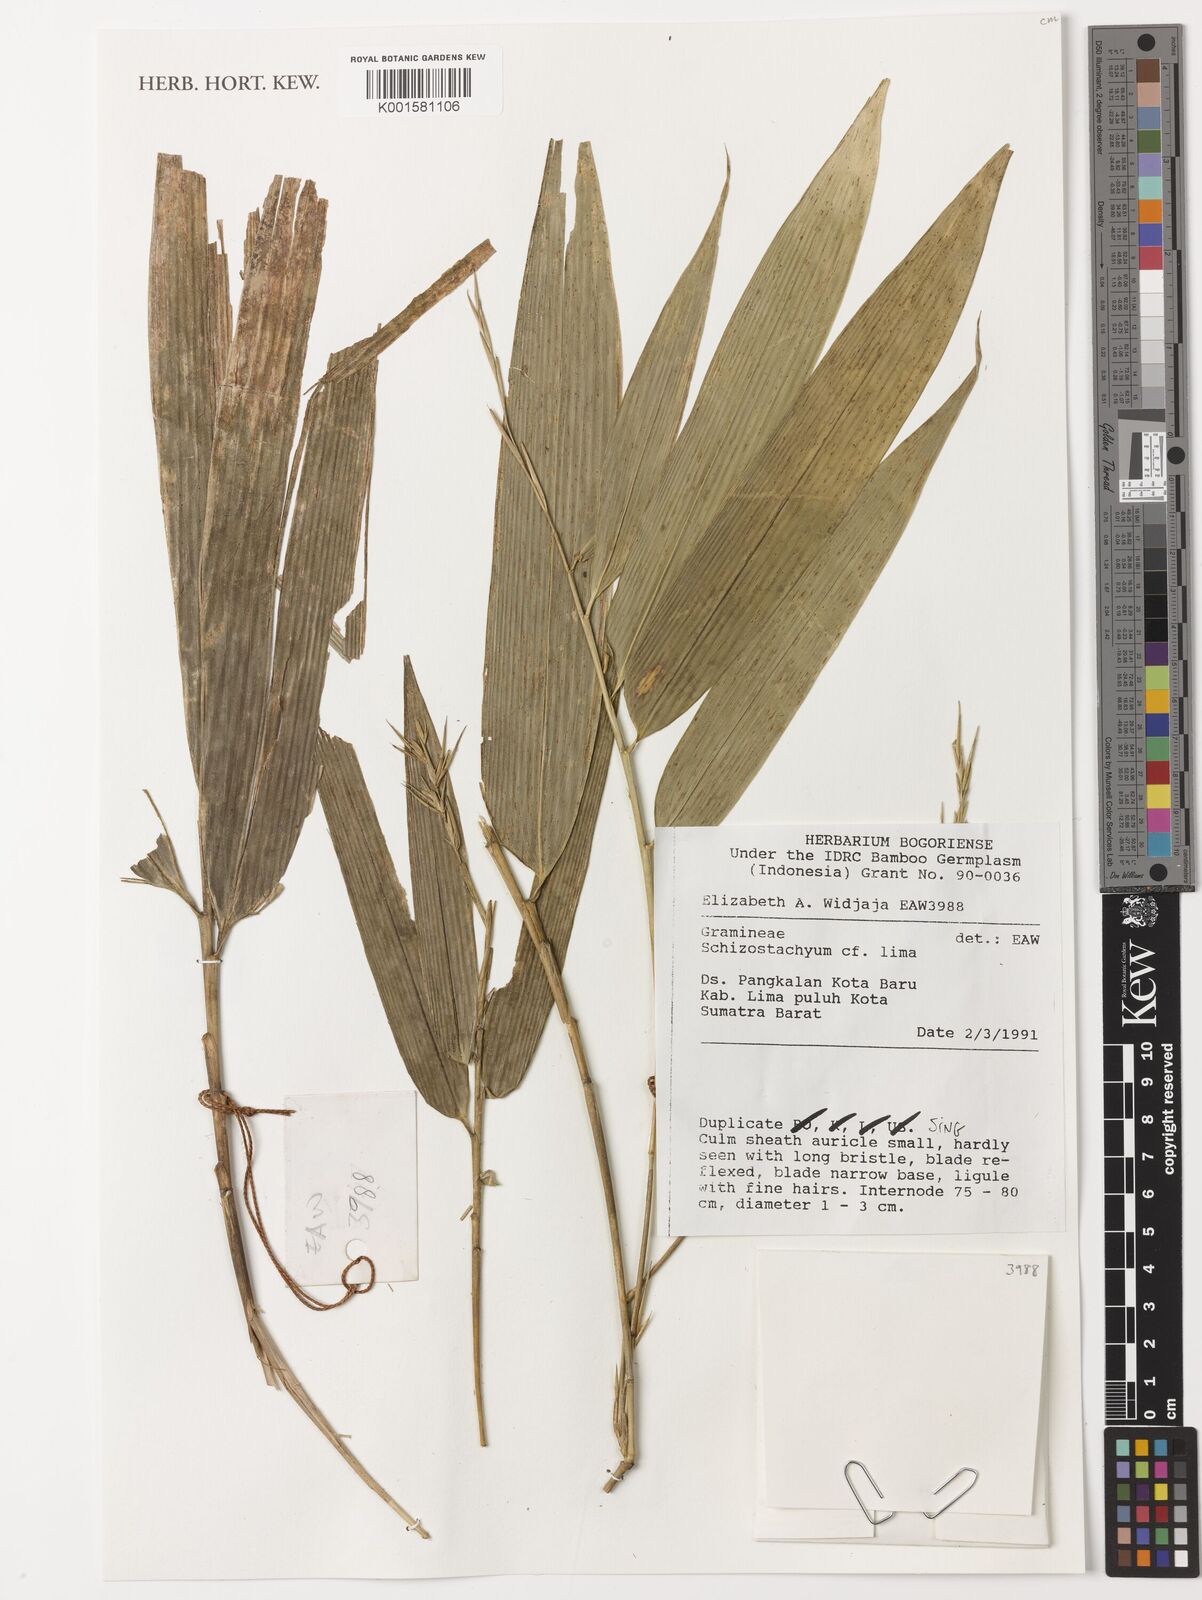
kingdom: Plantae
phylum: Tracheophyta
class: Liliopsida
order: Poales
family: Poaceae
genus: Schizostachyum
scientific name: Schizostachyum lima
